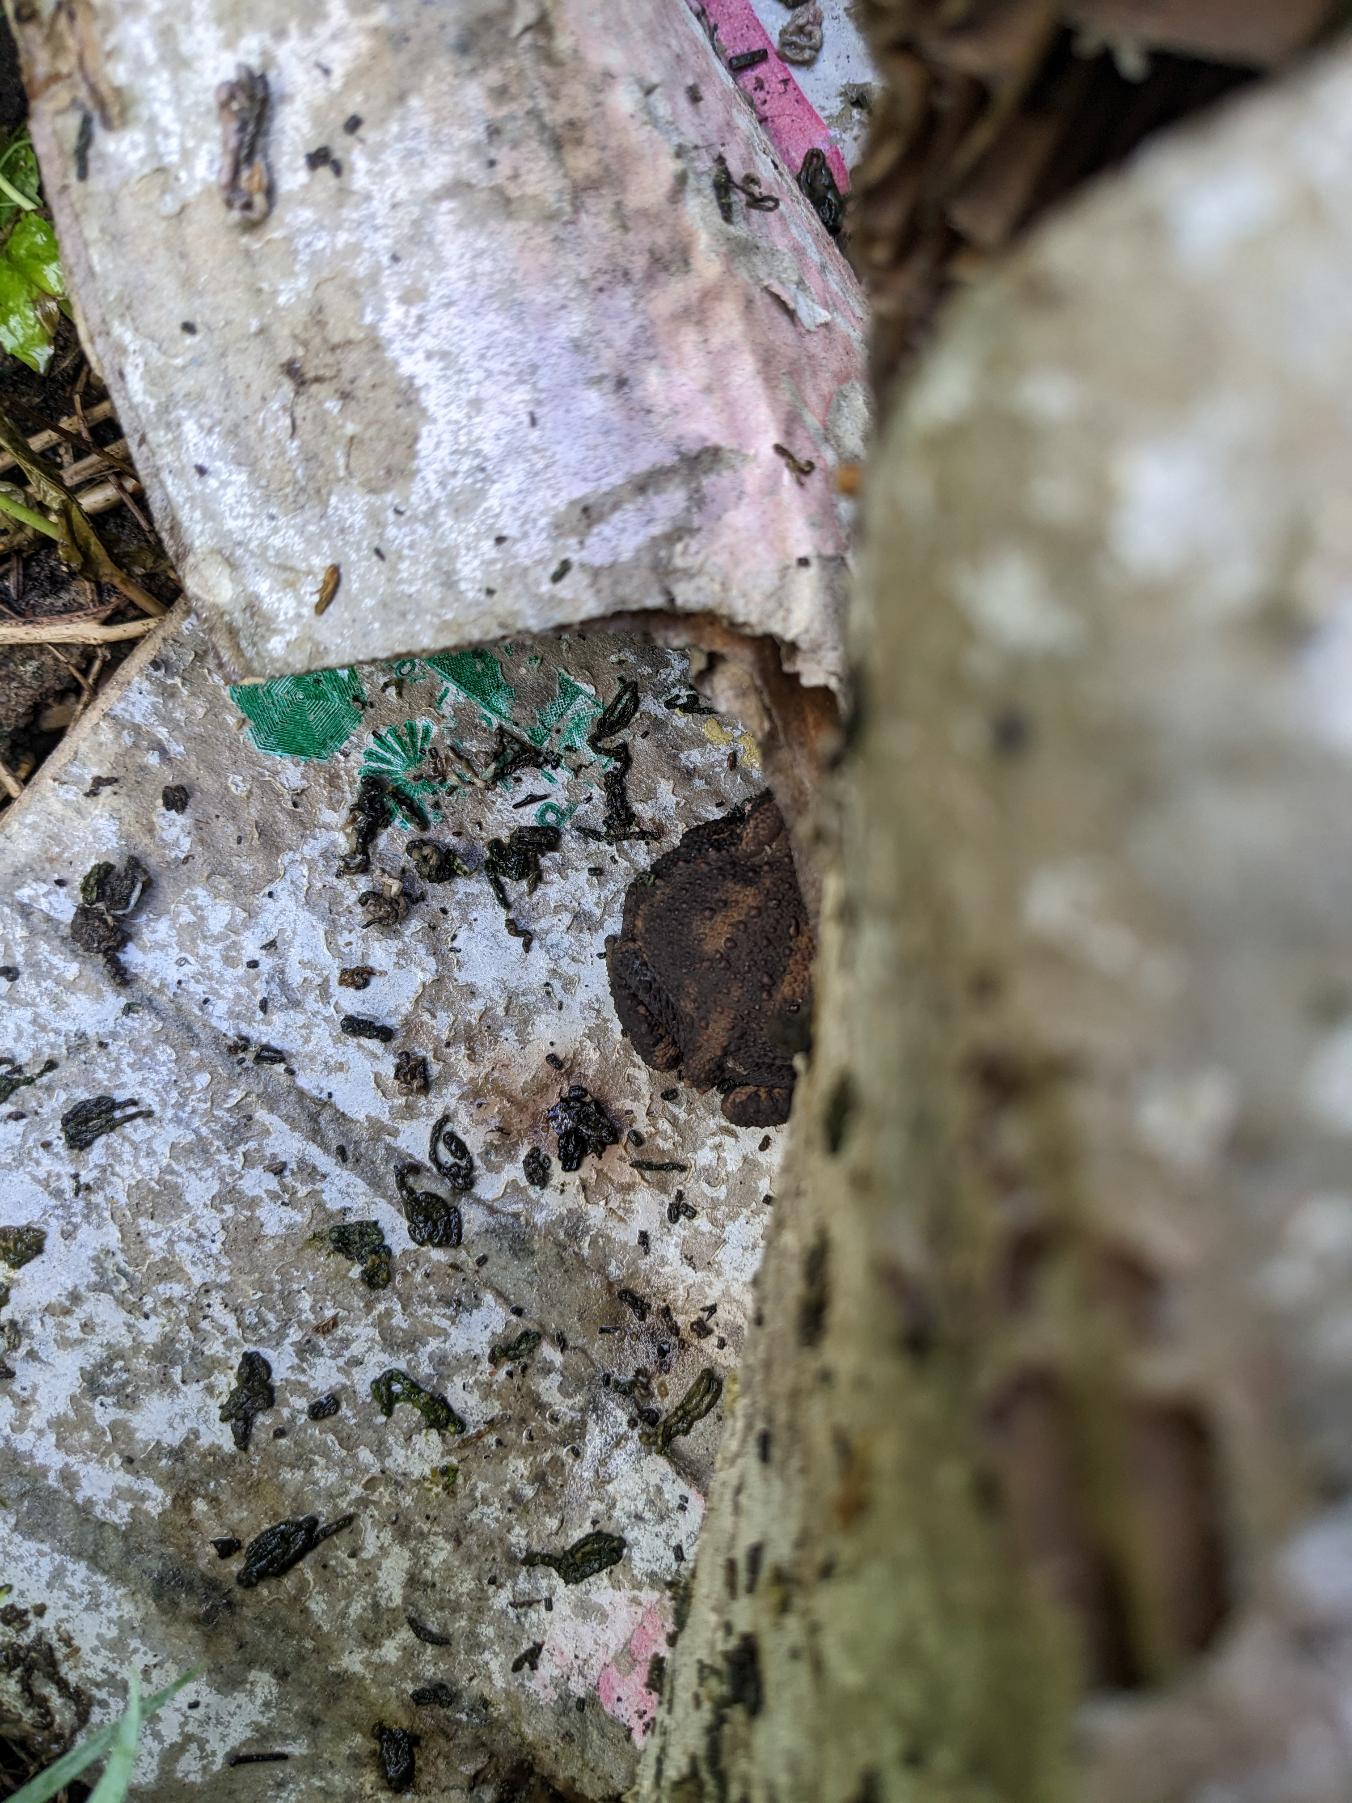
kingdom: Animalia
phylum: Chordata
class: Amphibia
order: Anura
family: Bufonidae
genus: Bufo
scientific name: Bufo bufo
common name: Skrubtudse
